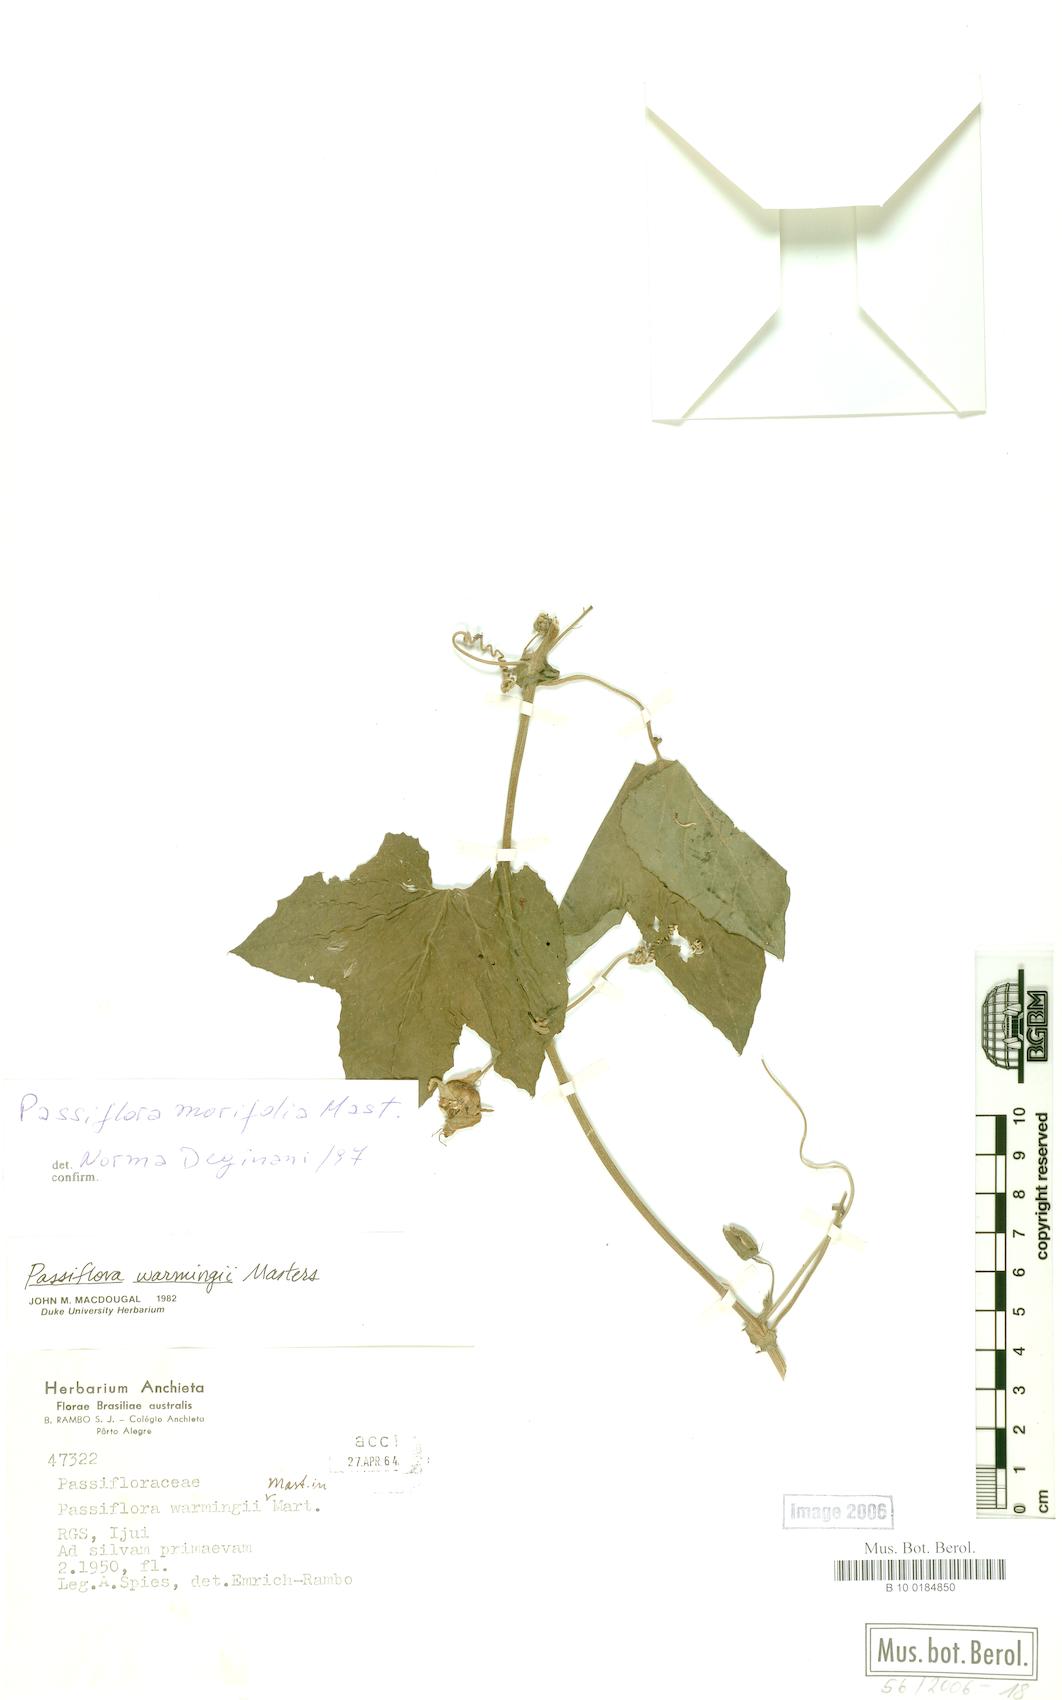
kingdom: Plantae
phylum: Tracheophyta
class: Magnoliopsida
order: Malpighiales
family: Passifloraceae
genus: Passiflora
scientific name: Passiflora morifolia
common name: Woodland passionflower
